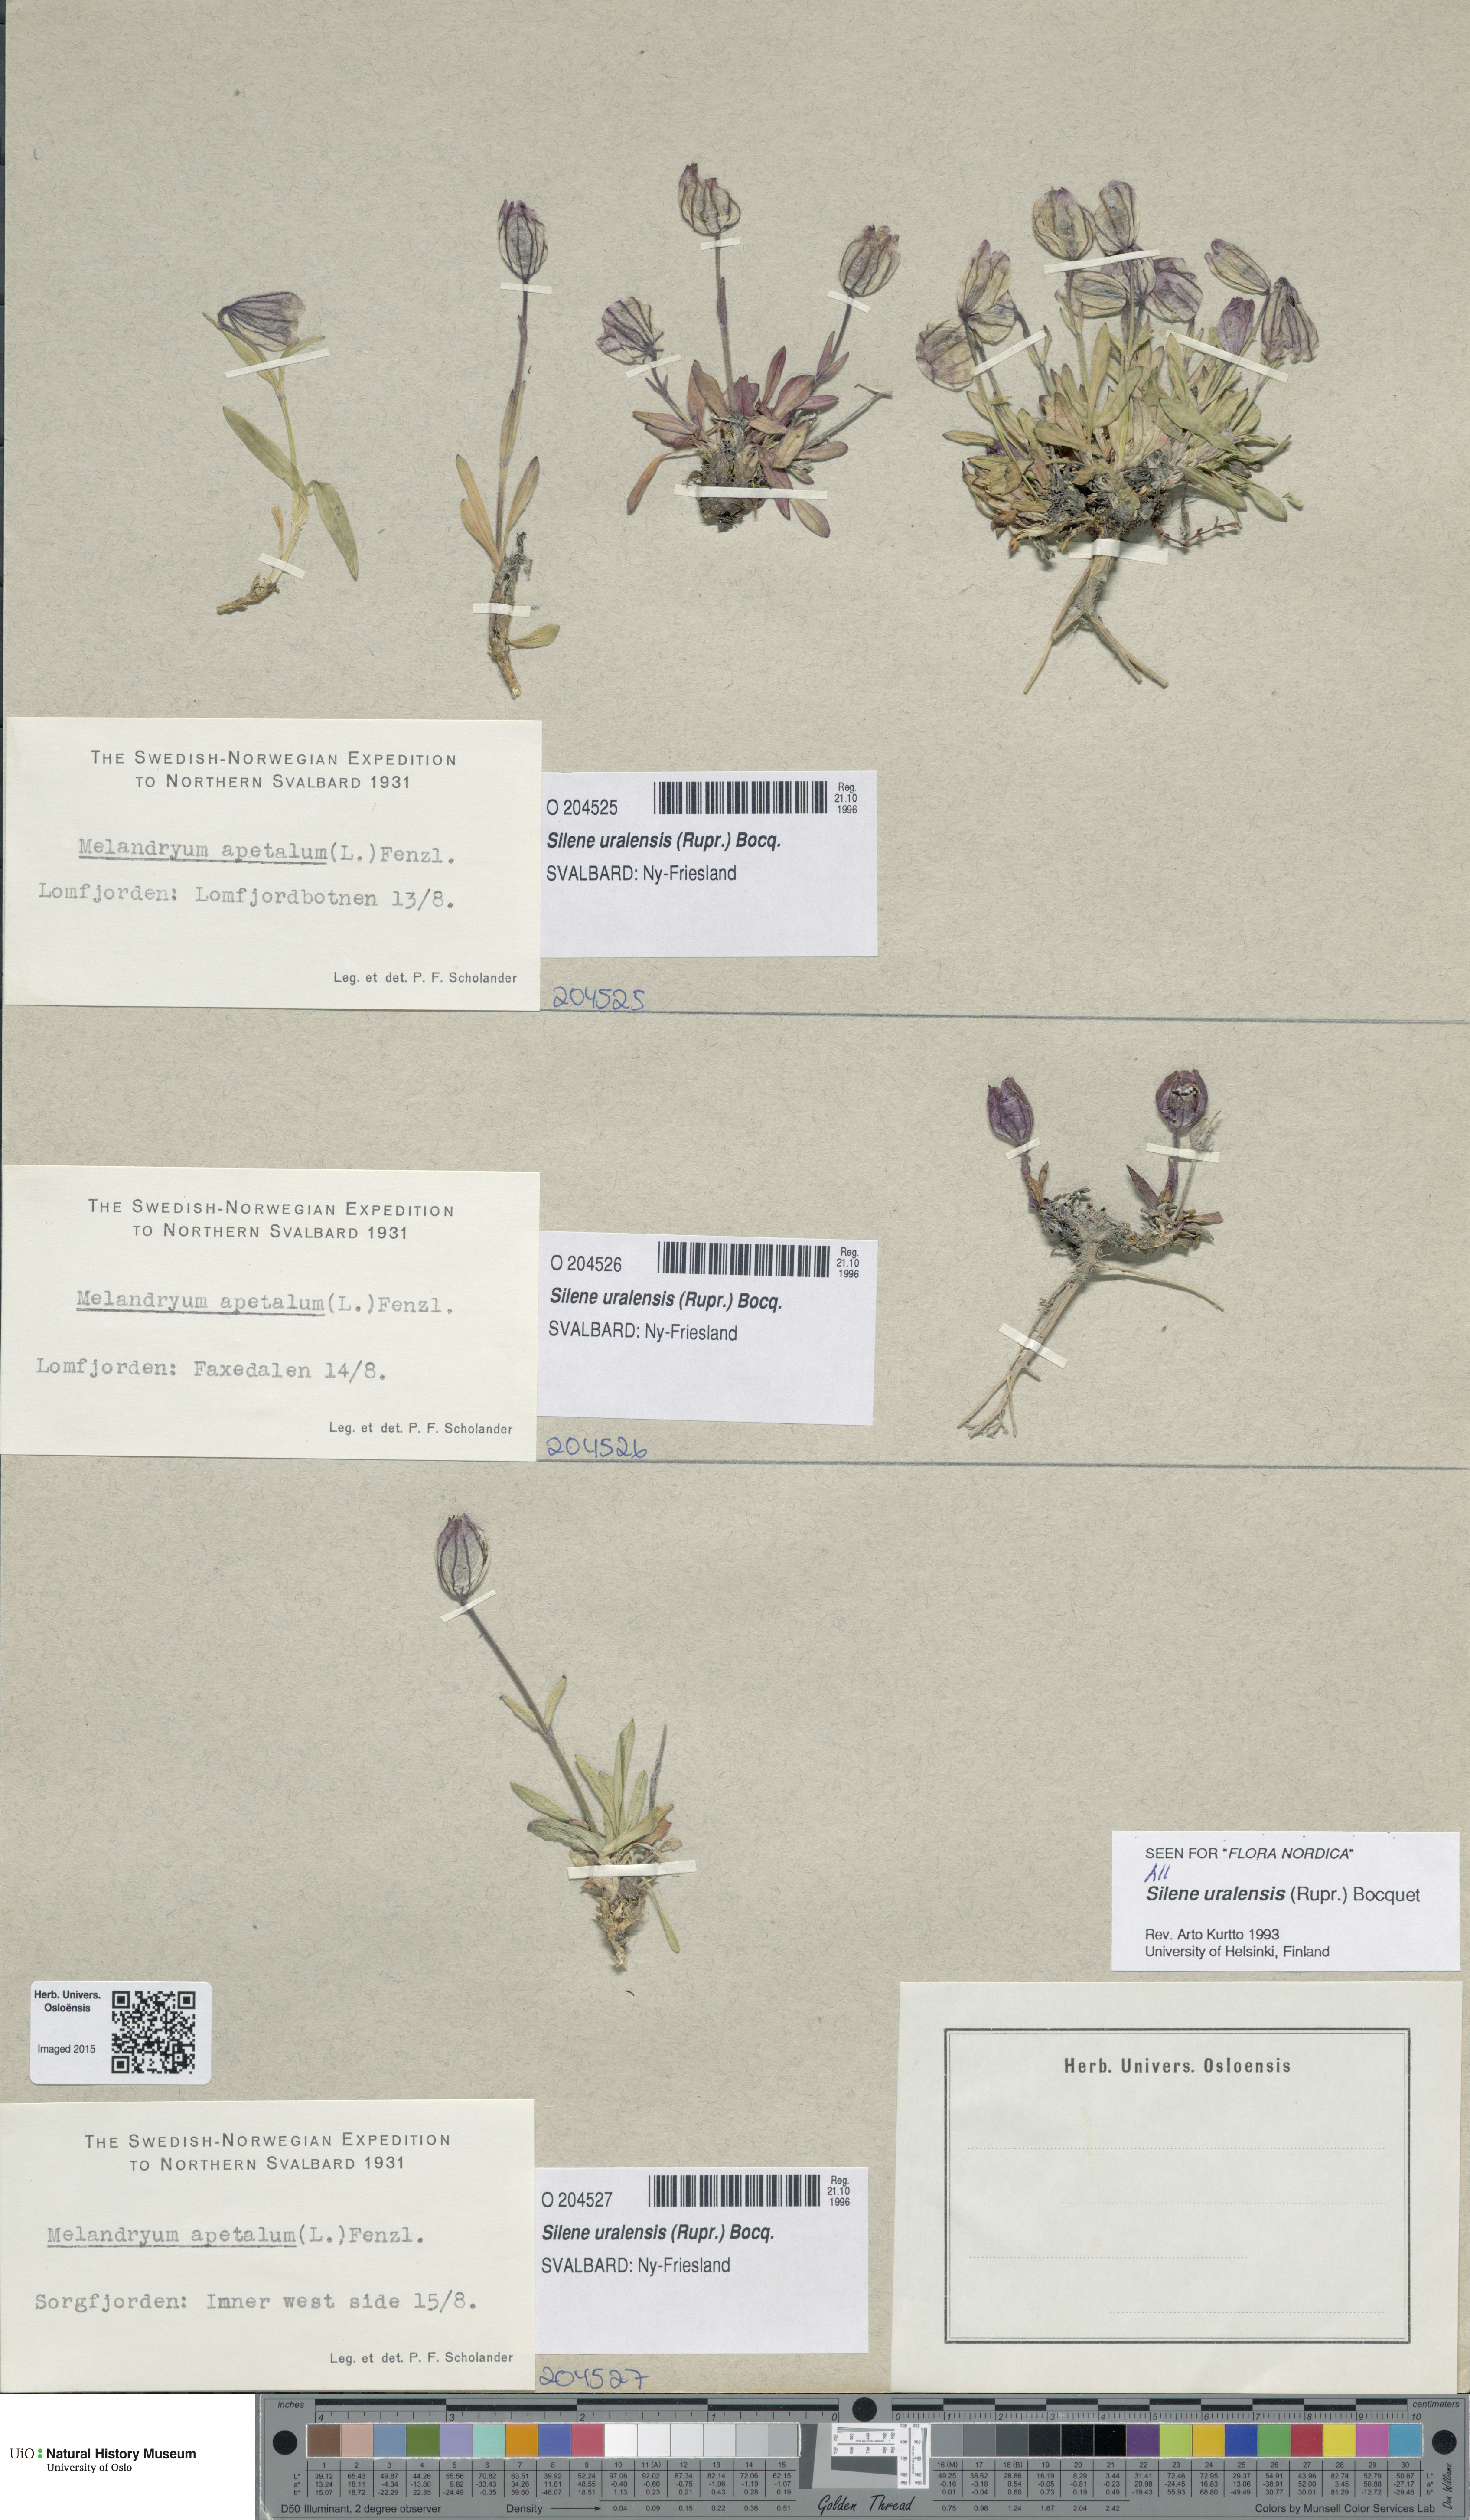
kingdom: Plantae
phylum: Tracheophyta
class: Magnoliopsida
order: Caryophyllales
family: Caryophyllaceae
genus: Silene
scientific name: Silene uralensis
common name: Nodding campion
